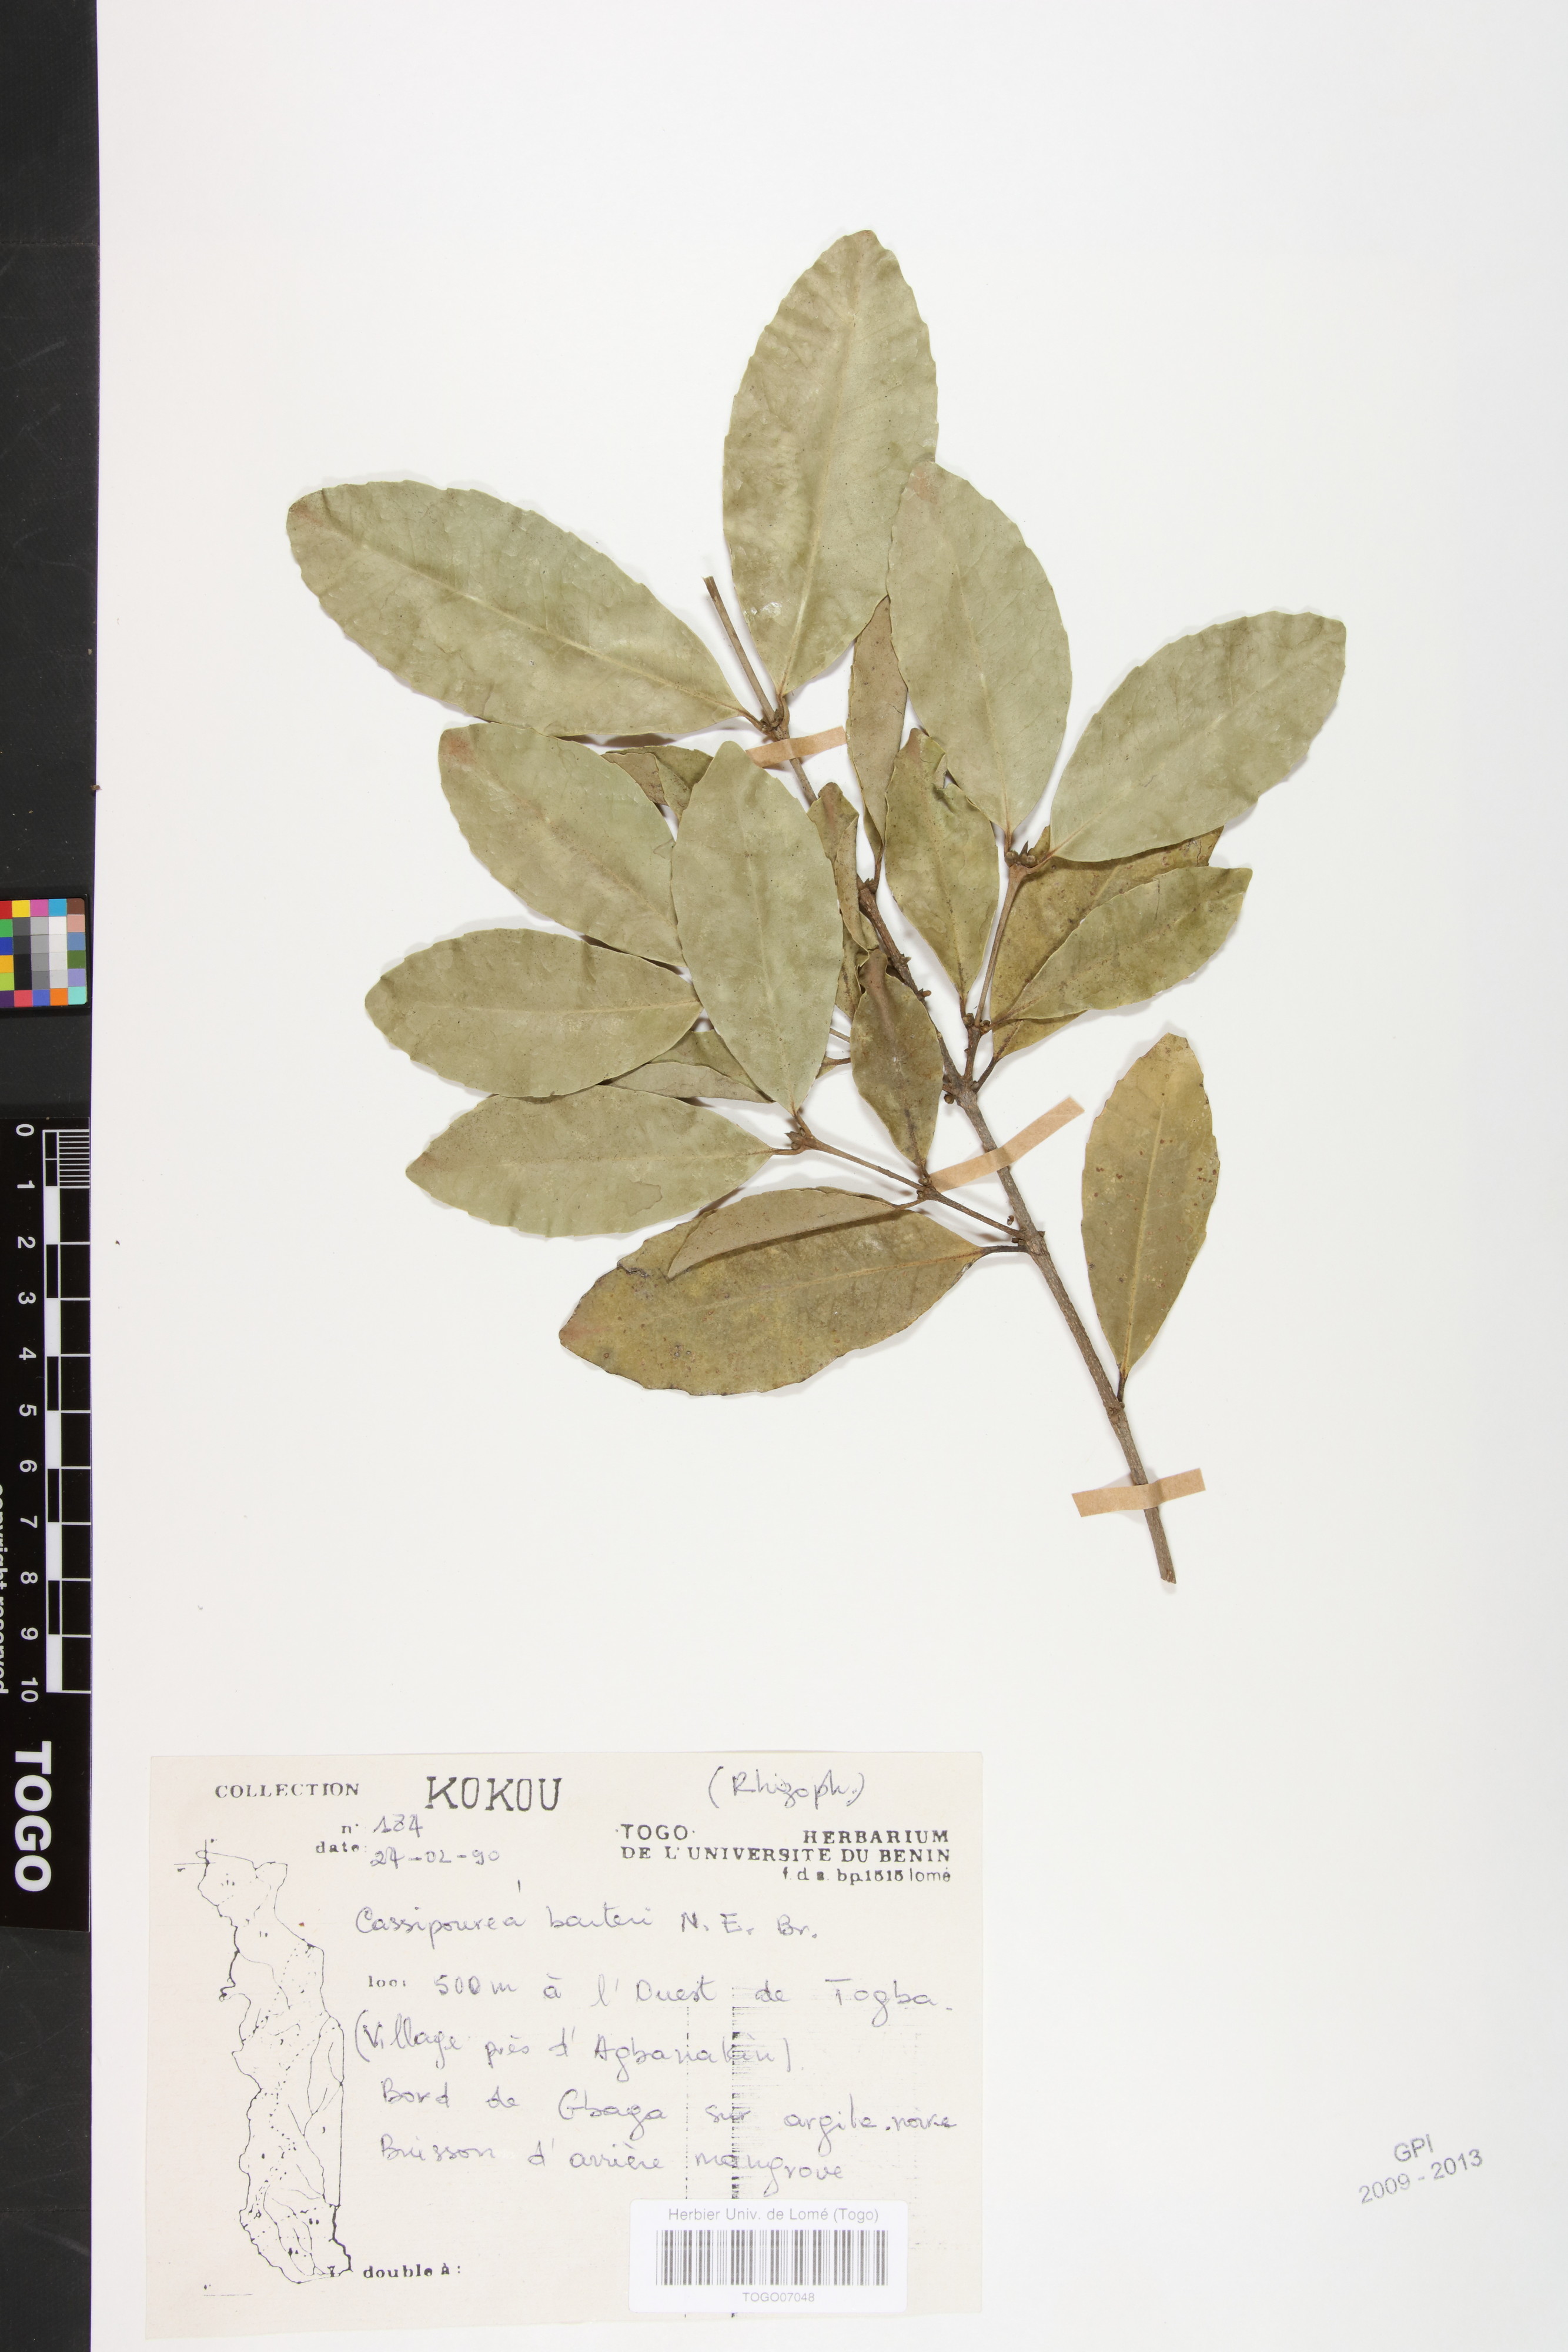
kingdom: Plantae
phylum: Tracheophyta
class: Magnoliopsida
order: Malpighiales
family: Rhizophoraceae
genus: Cassipourea
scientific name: Cassipourea barteri
